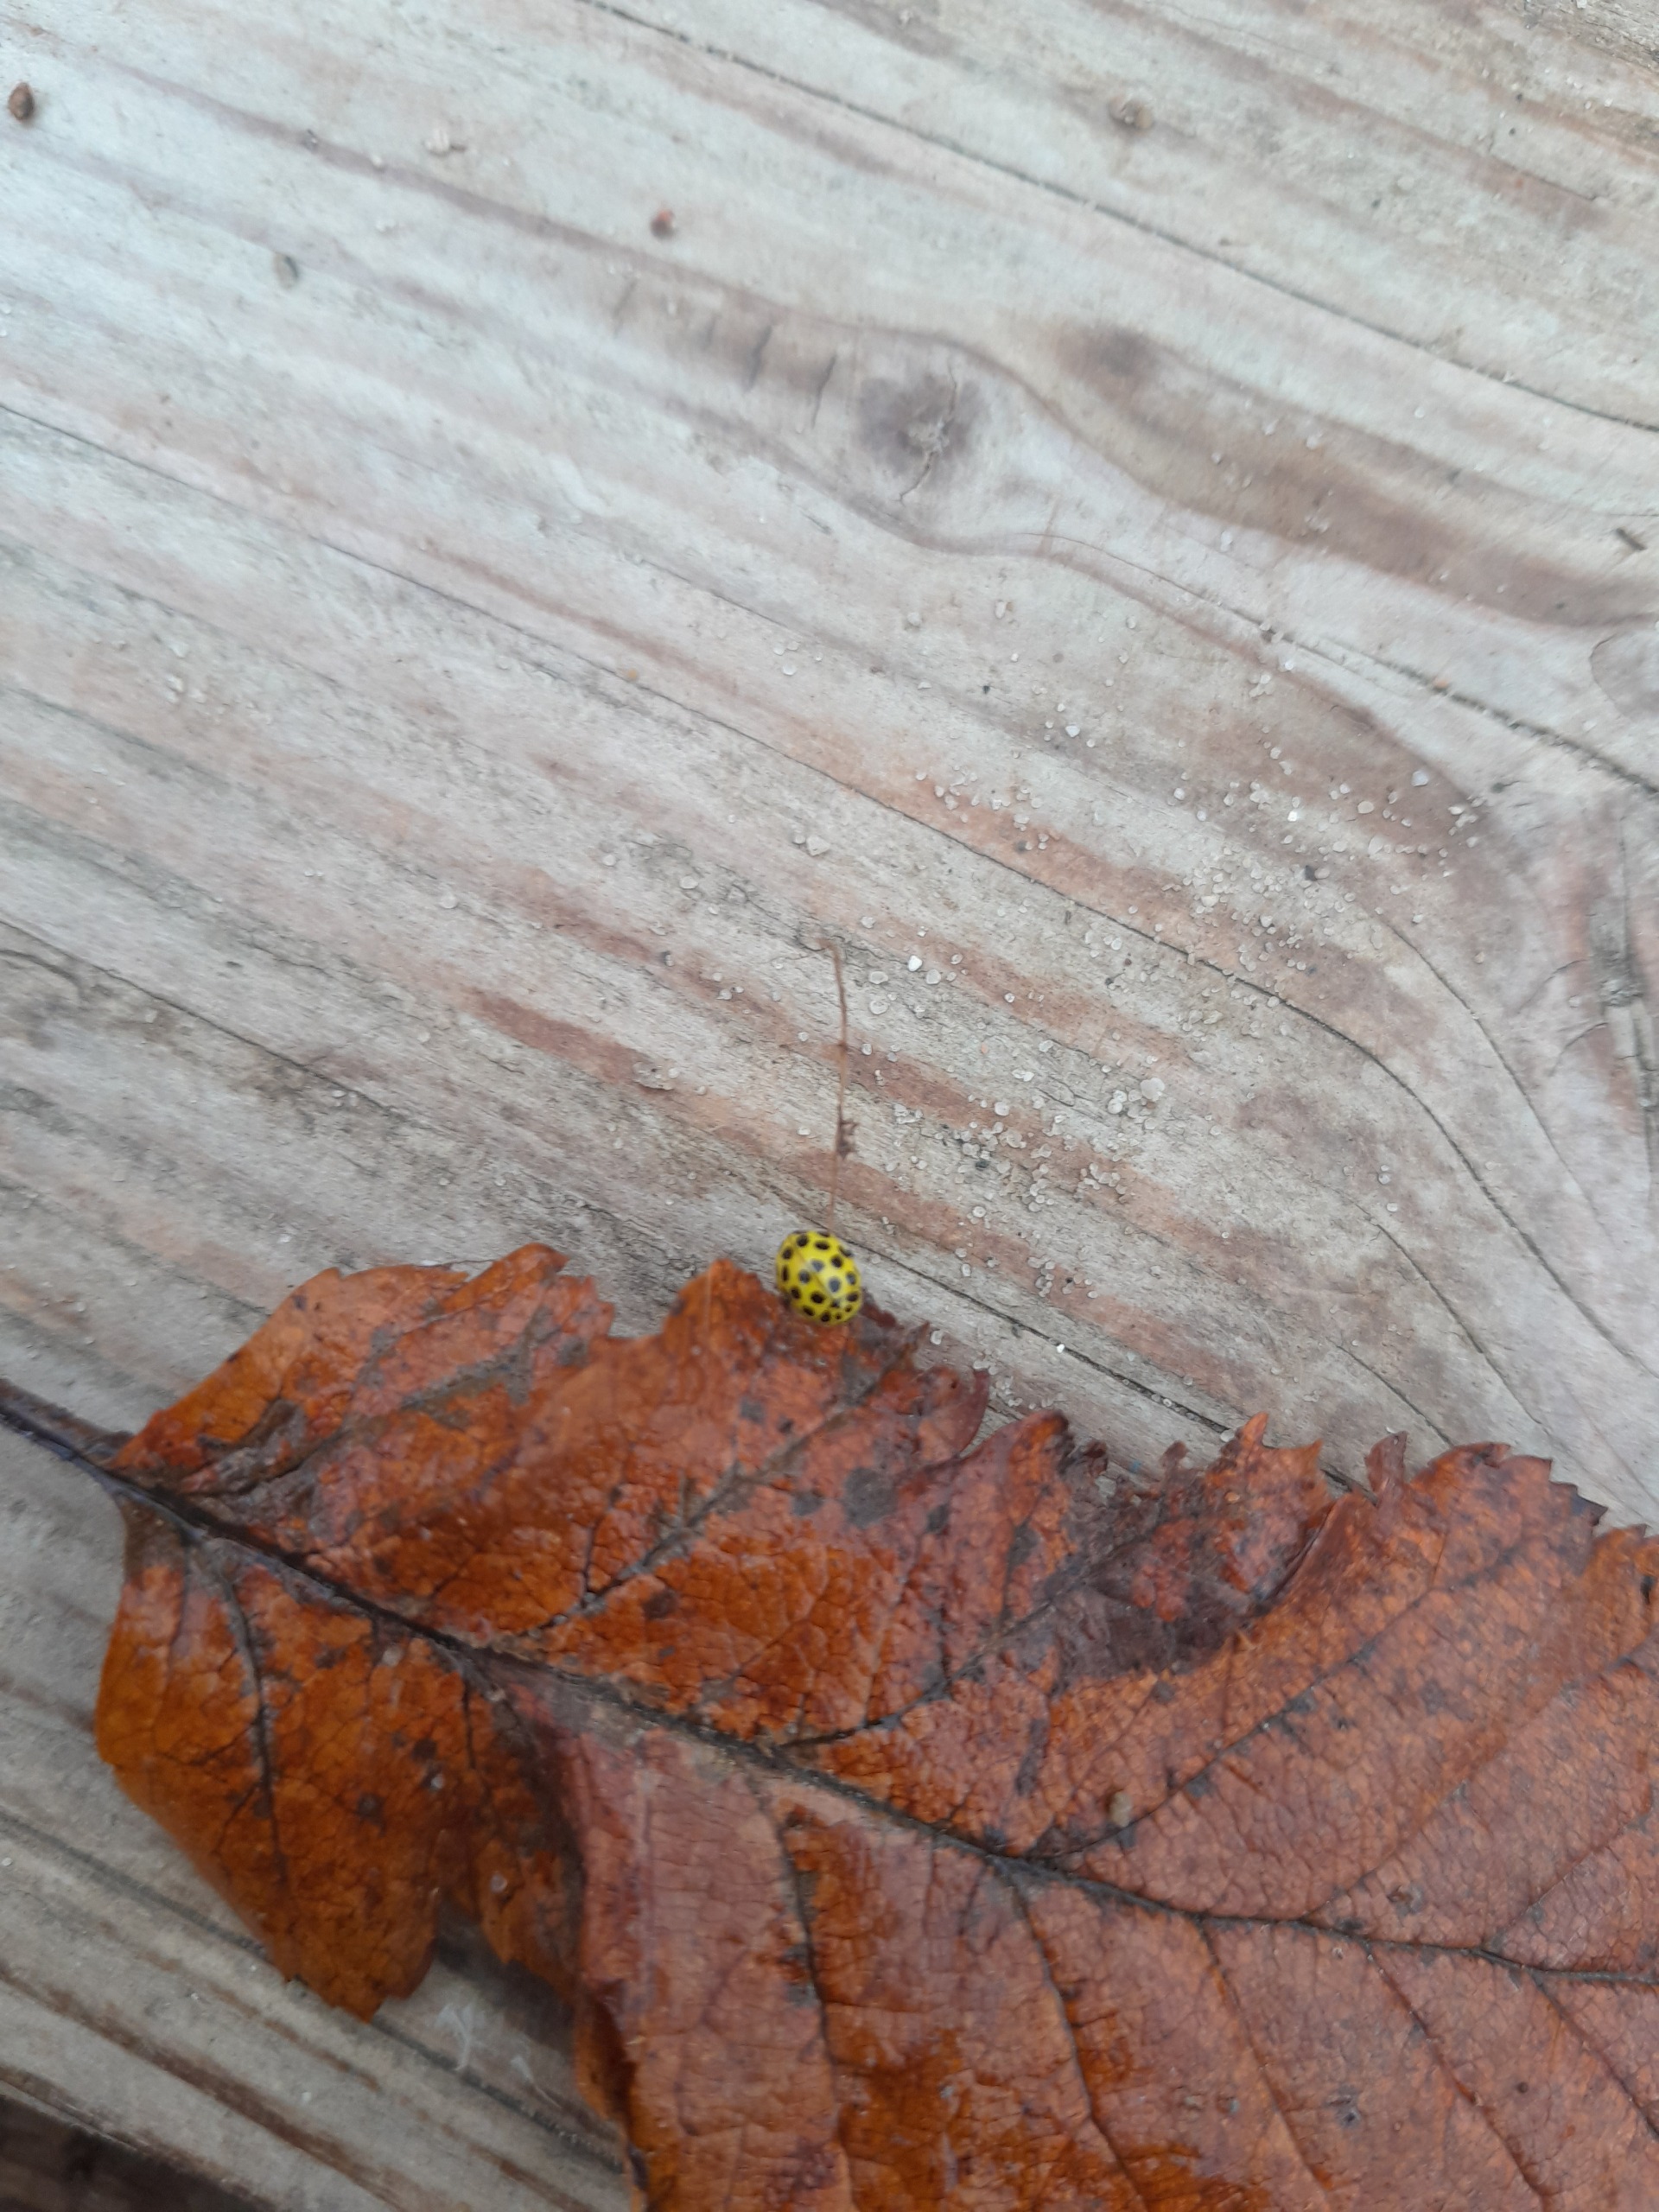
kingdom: Animalia
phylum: Arthropoda
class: Insecta
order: Coleoptera
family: Coccinellidae
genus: Psyllobora
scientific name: Psyllobora vigintiduopunctata
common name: Toogtyveplettet mariehøne
